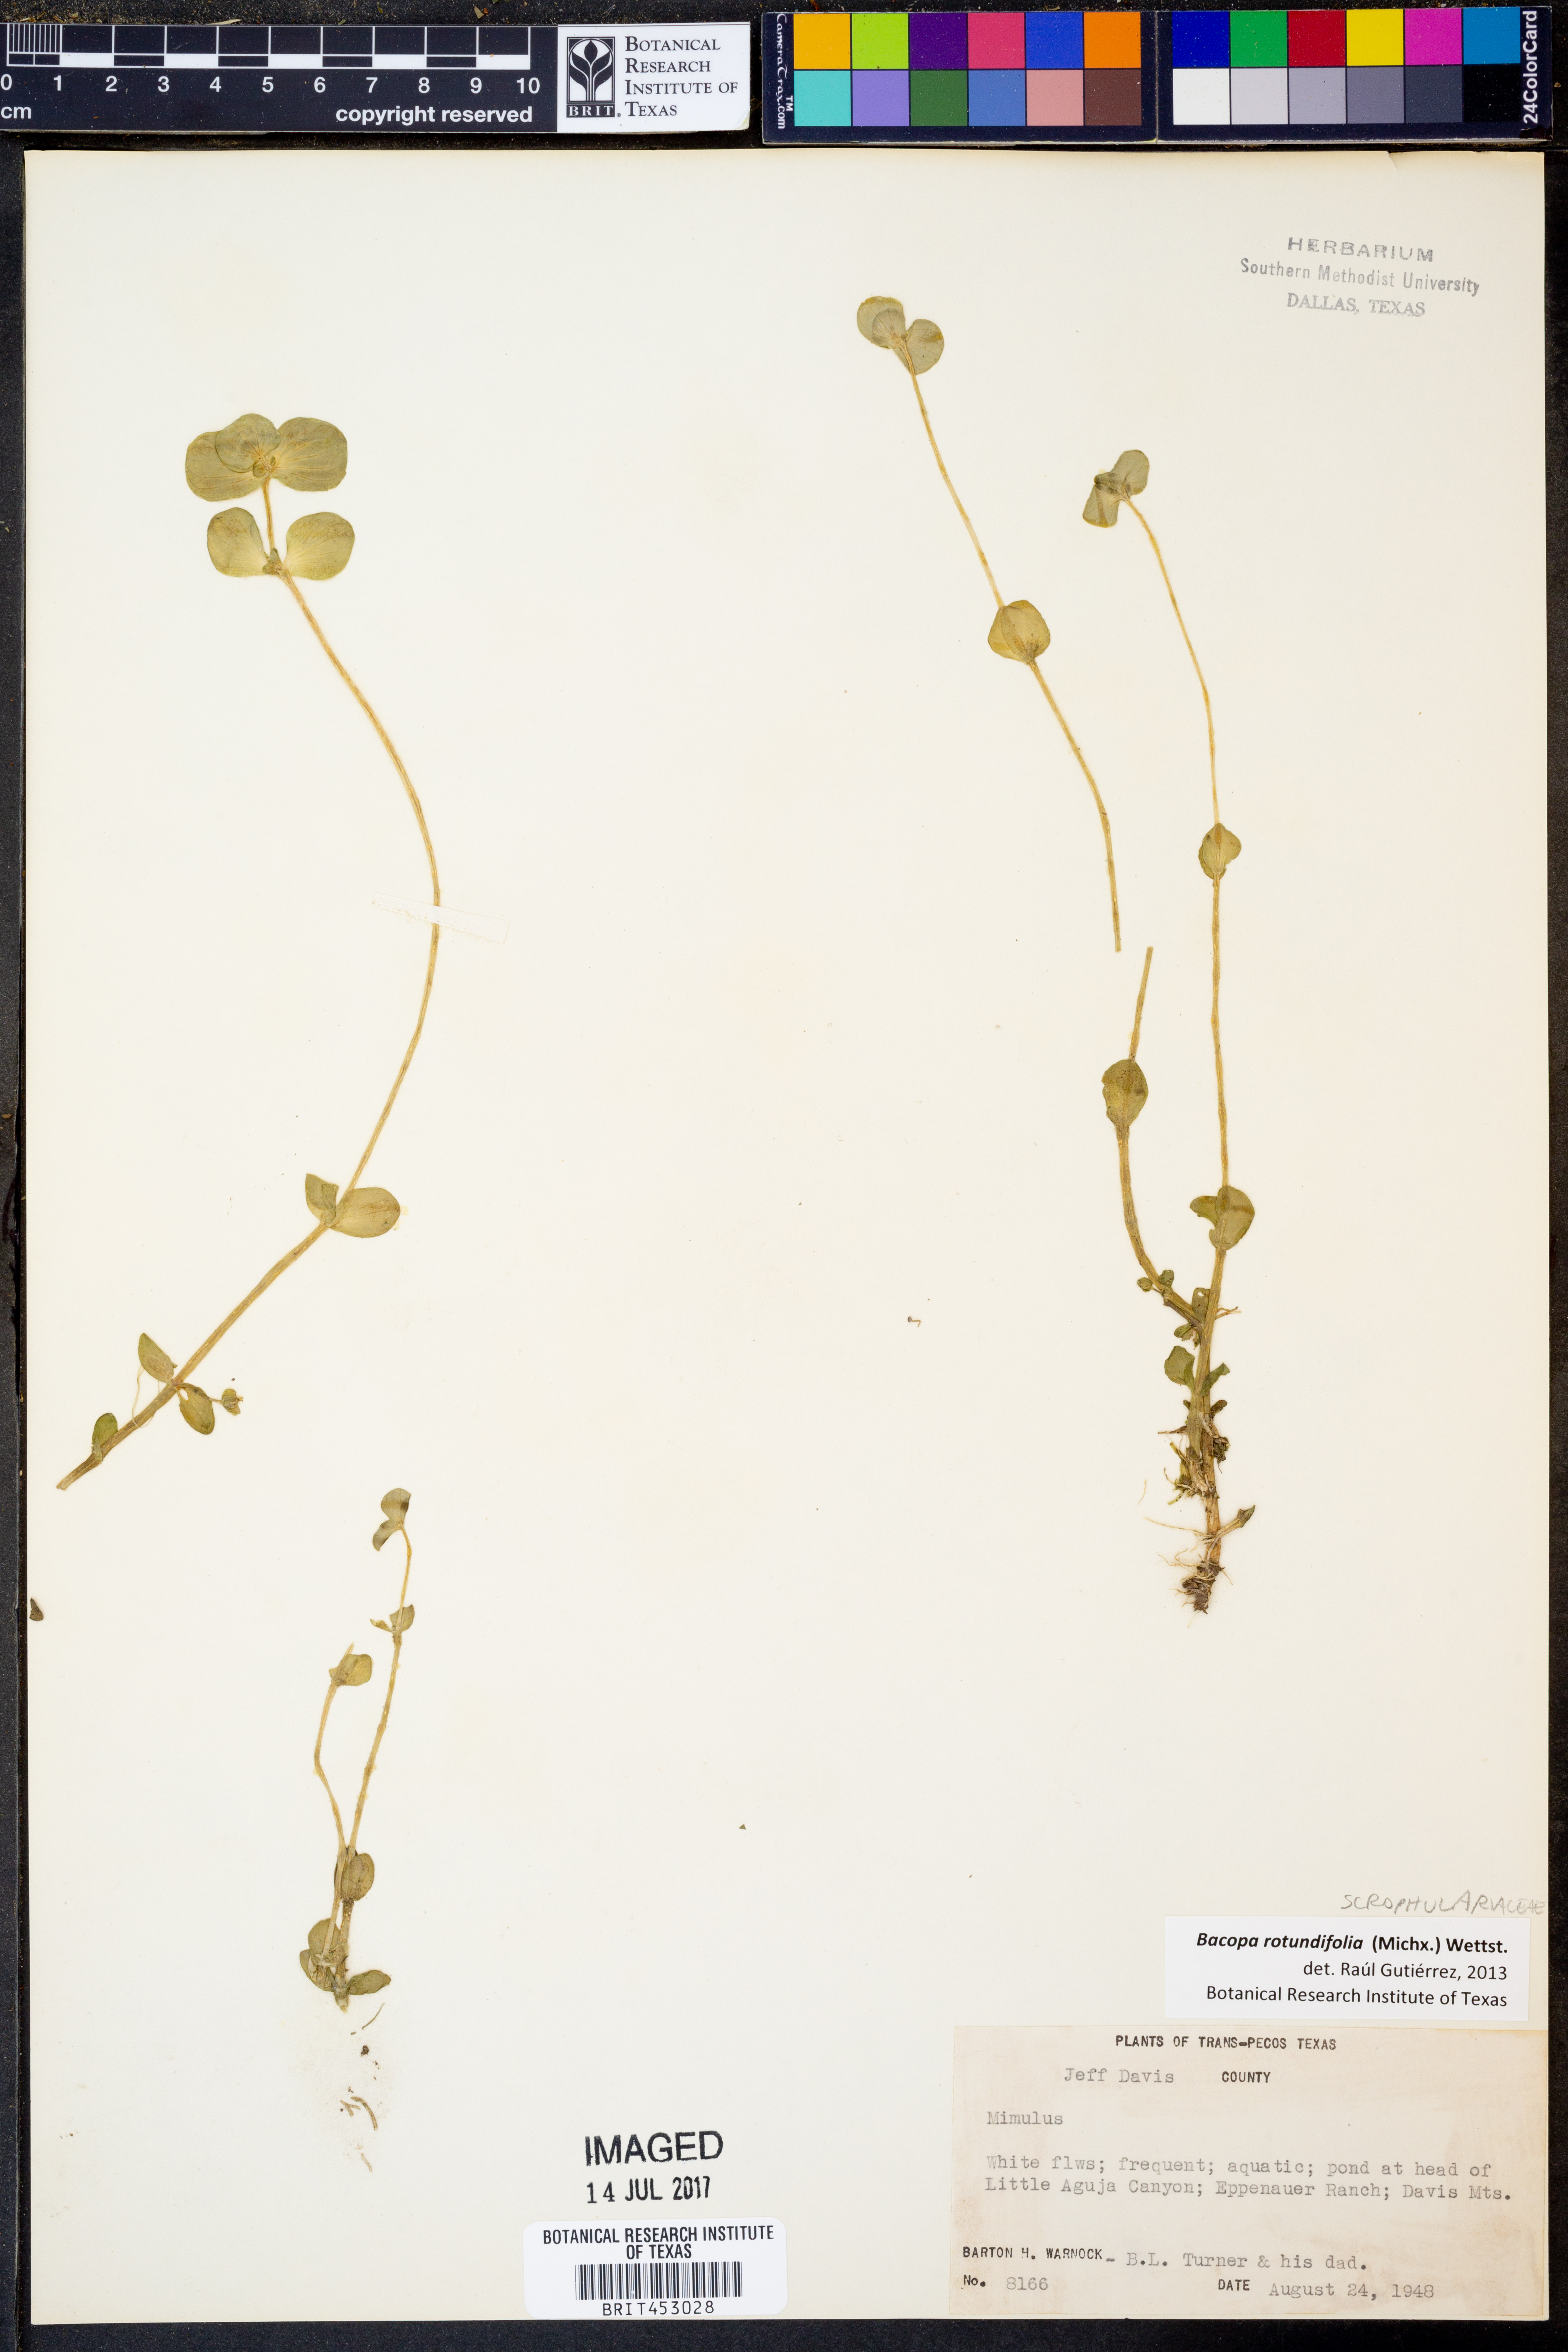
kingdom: Plantae
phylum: Tracheophyta
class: Magnoliopsida
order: Lamiales
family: Plantaginaceae
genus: Bacopa
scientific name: Bacopa rotundifolia
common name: Disc water hyssop
